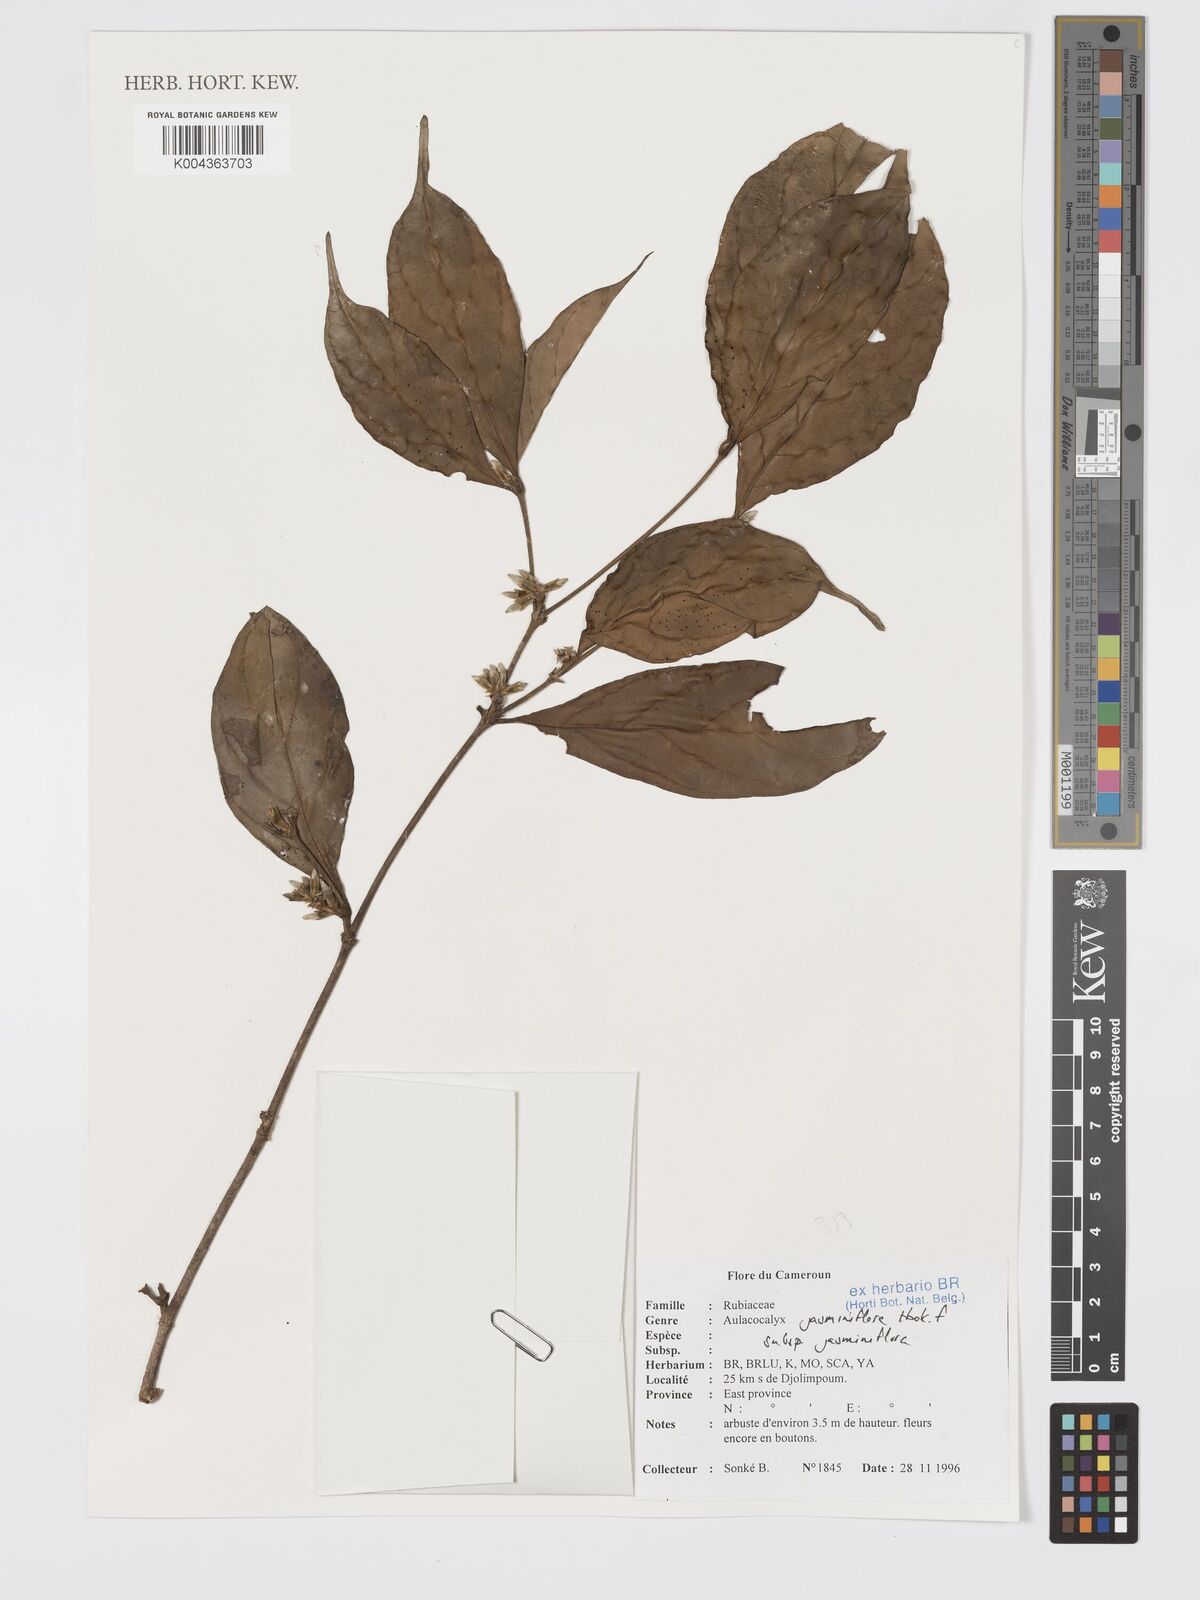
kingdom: Plantae
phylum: Tracheophyta
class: Magnoliopsida
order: Gentianales
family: Rubiaceae
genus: Aulacocalyx
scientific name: Aulacocalyx jasminiflora
